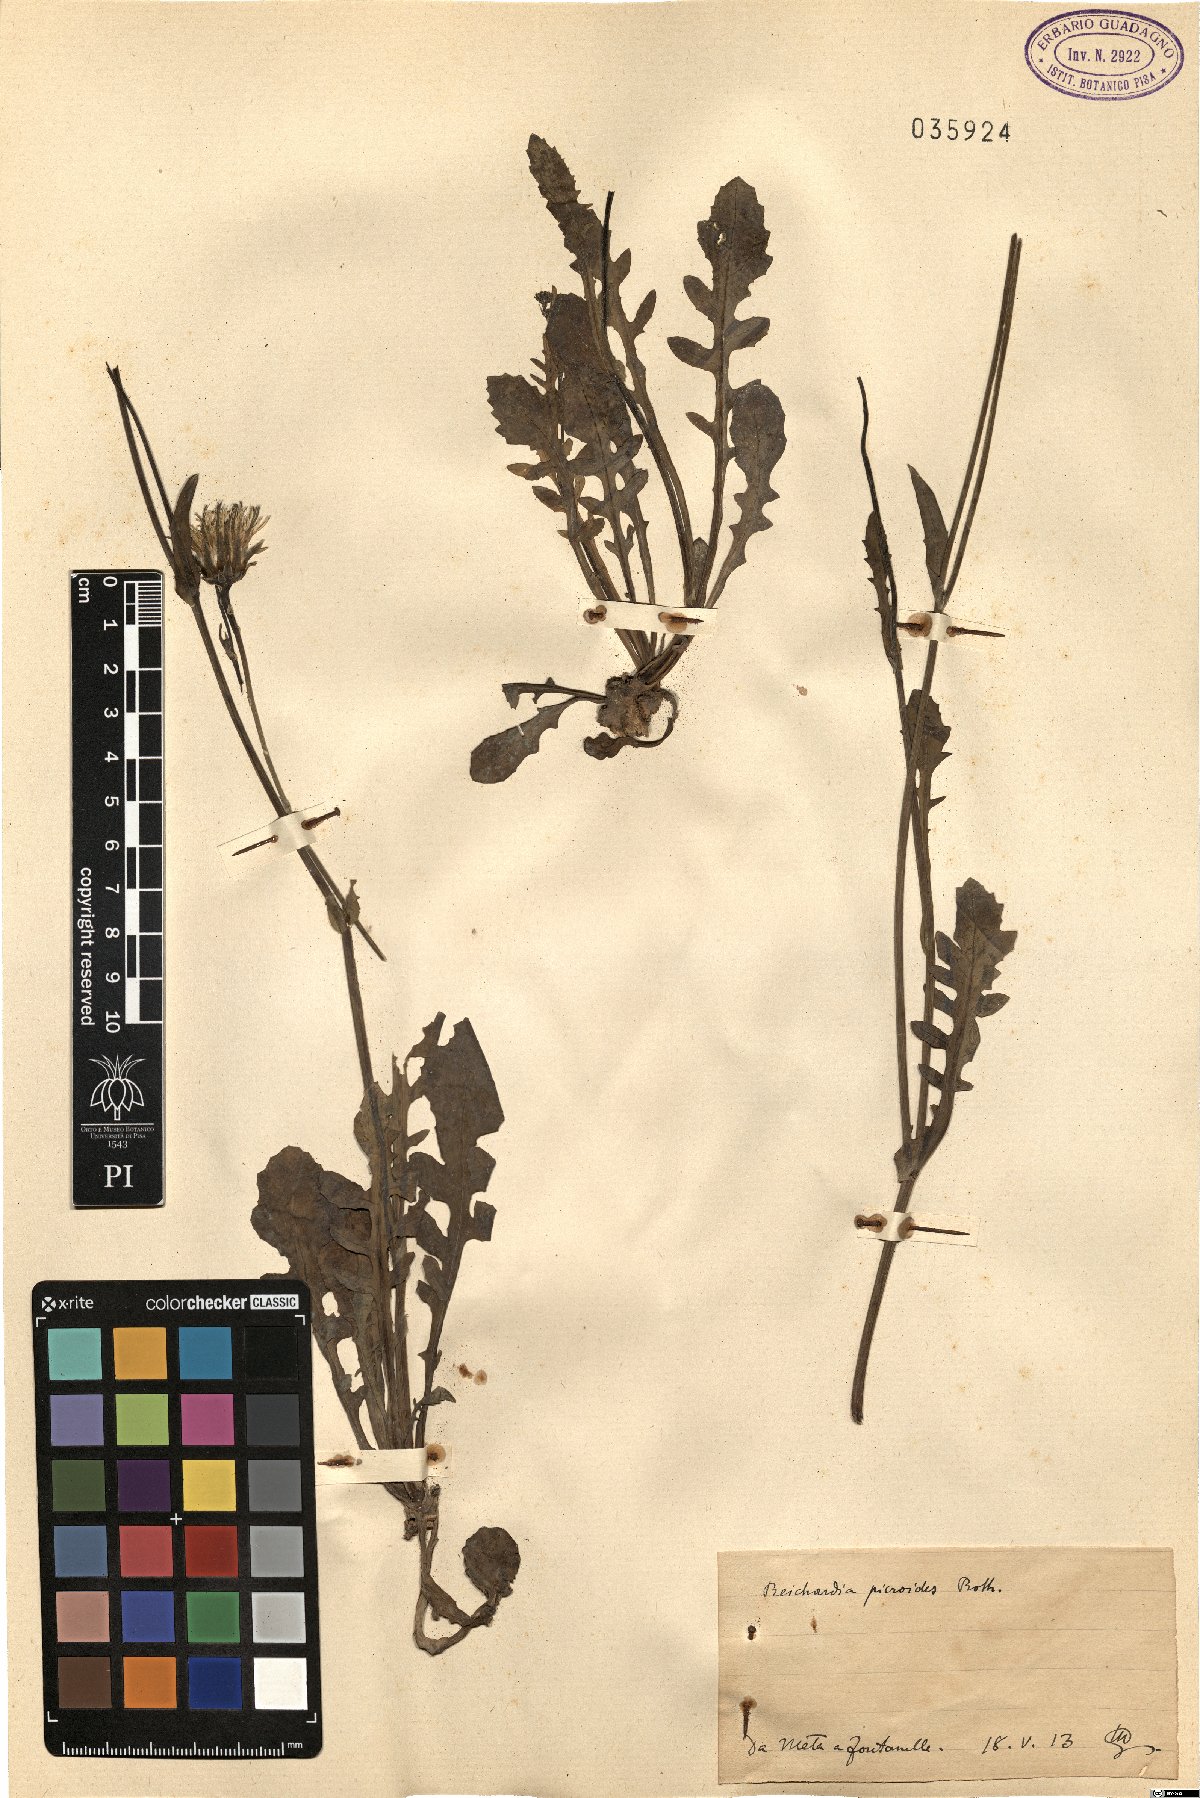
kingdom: Plantae
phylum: Tracheophyta
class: Magnoliopsida
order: Asterales
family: Asteraceae
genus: Reichardia
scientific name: Reichardia picroides
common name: Common brighteyes
